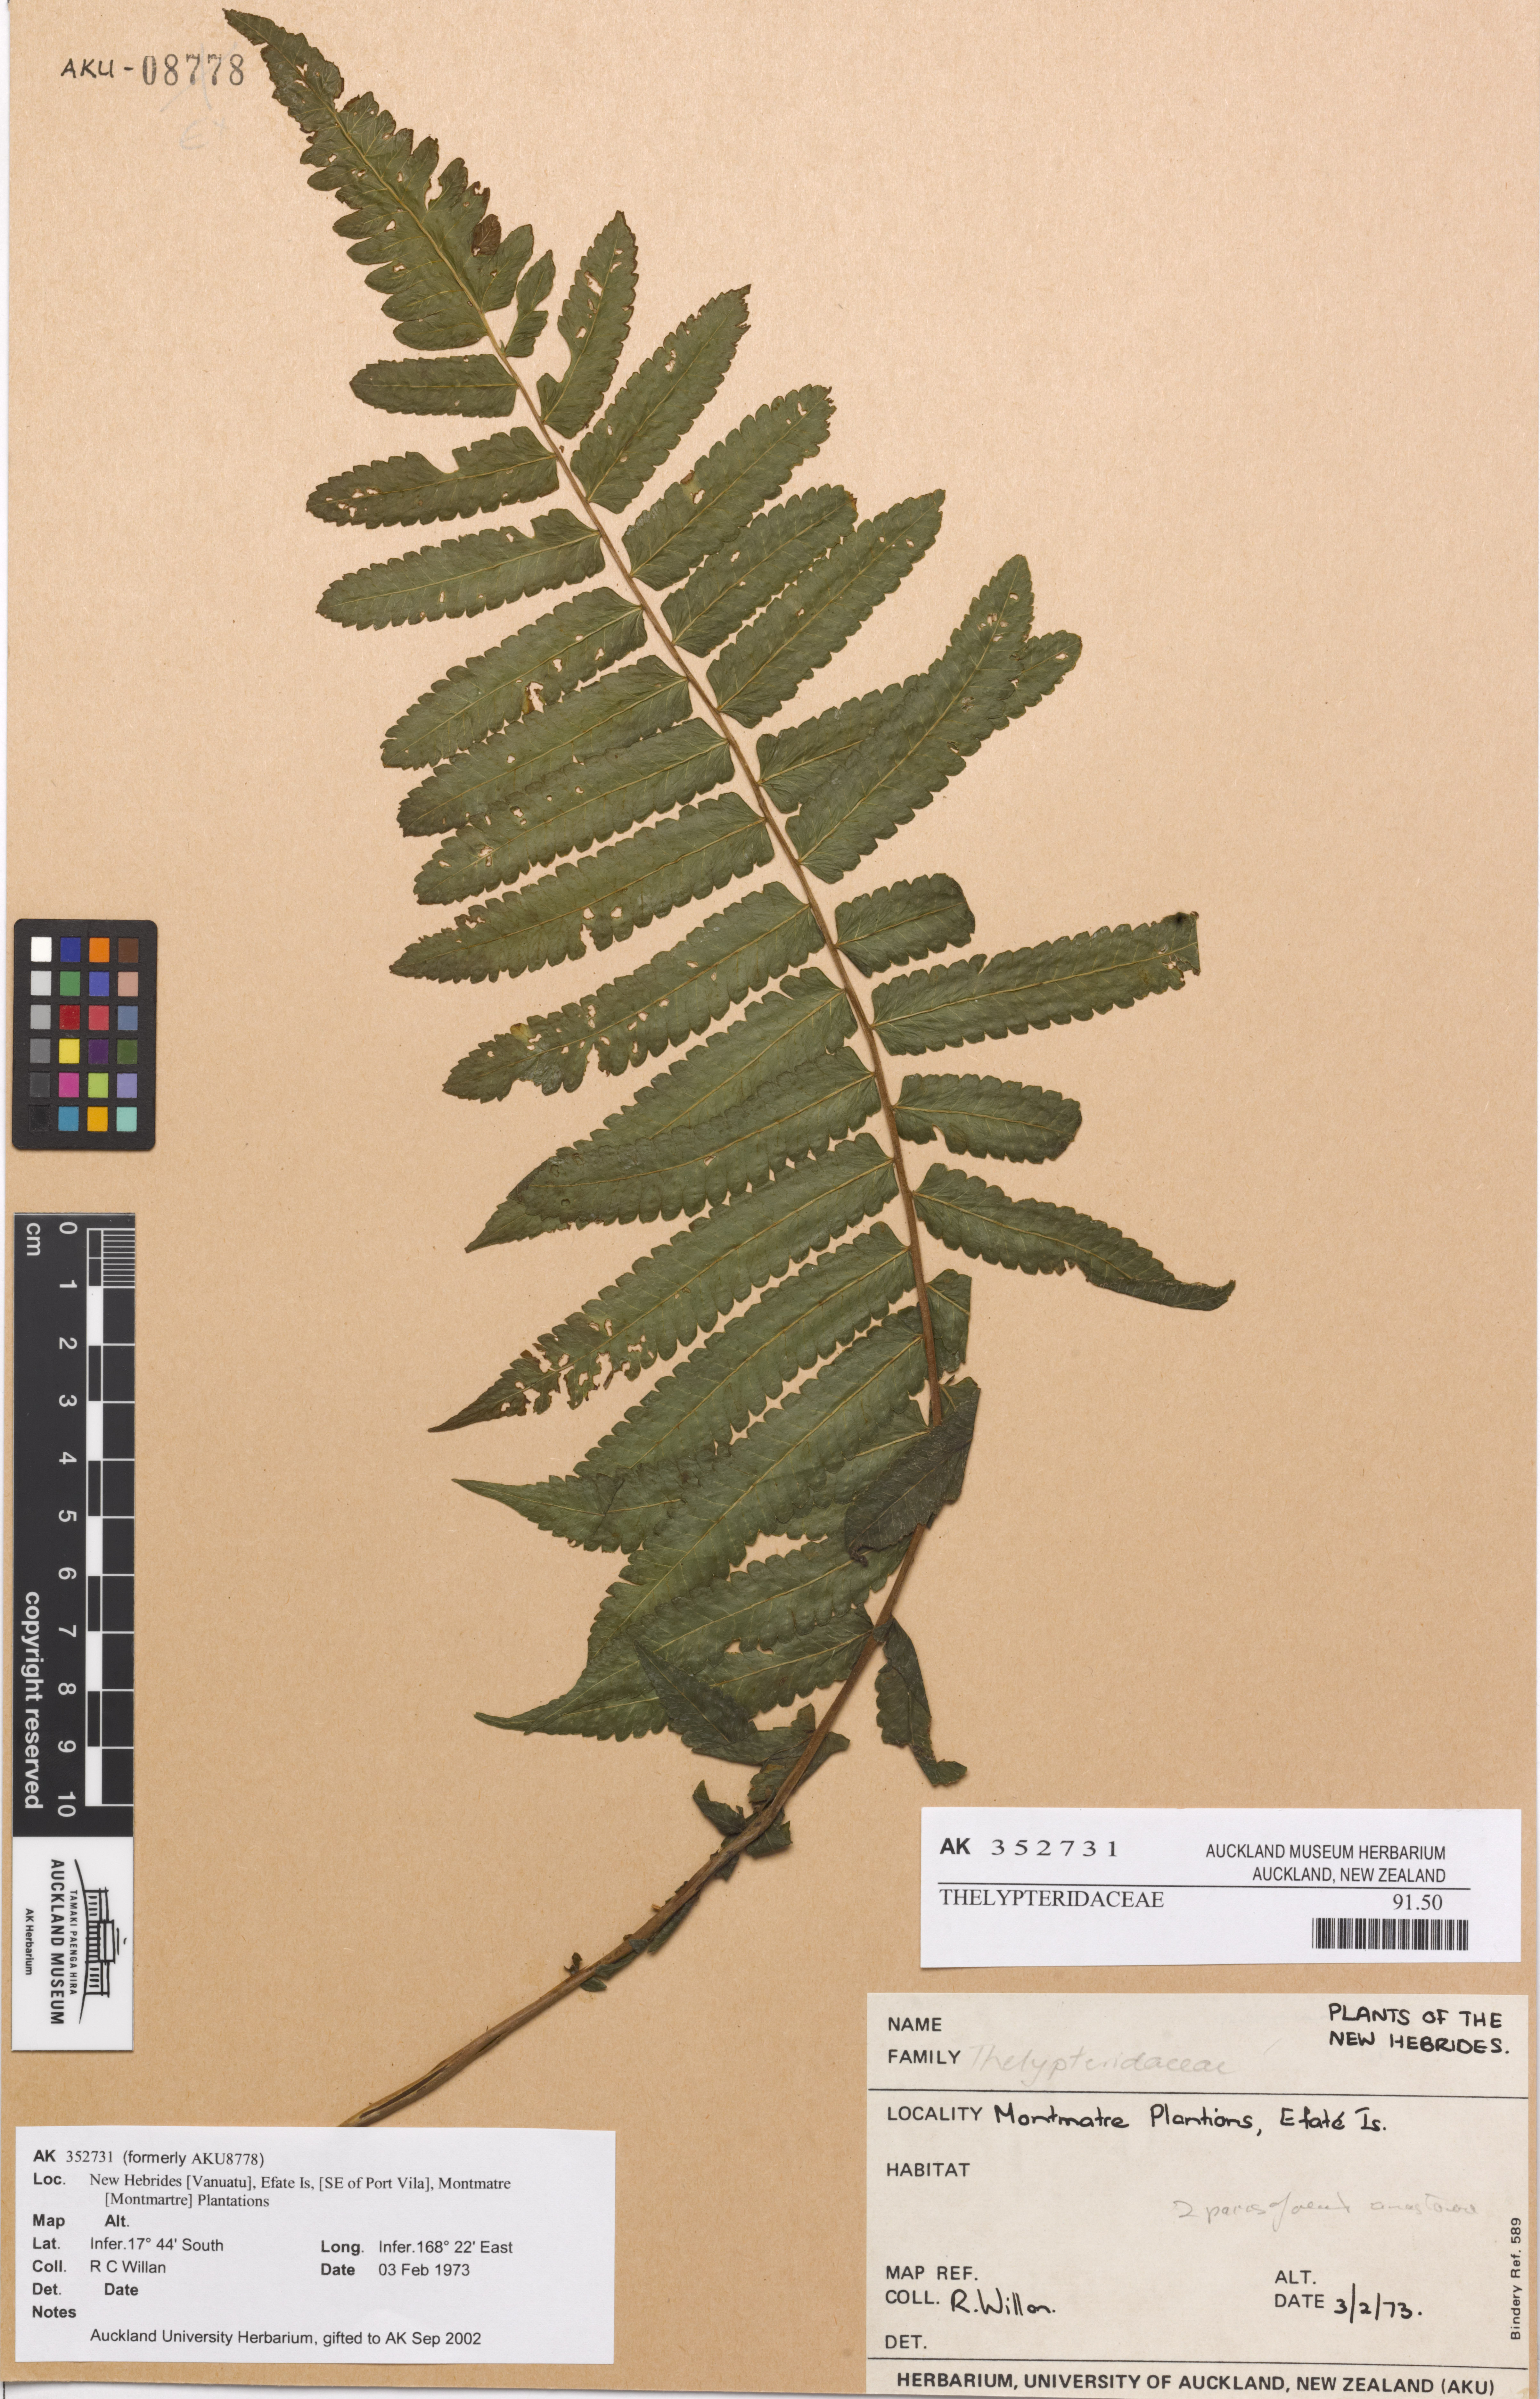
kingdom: Plantae
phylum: Tracheophyta
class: Polypodiopsida
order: Polypodiales
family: Thelypteridaceae
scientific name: Thelypteridaceae
